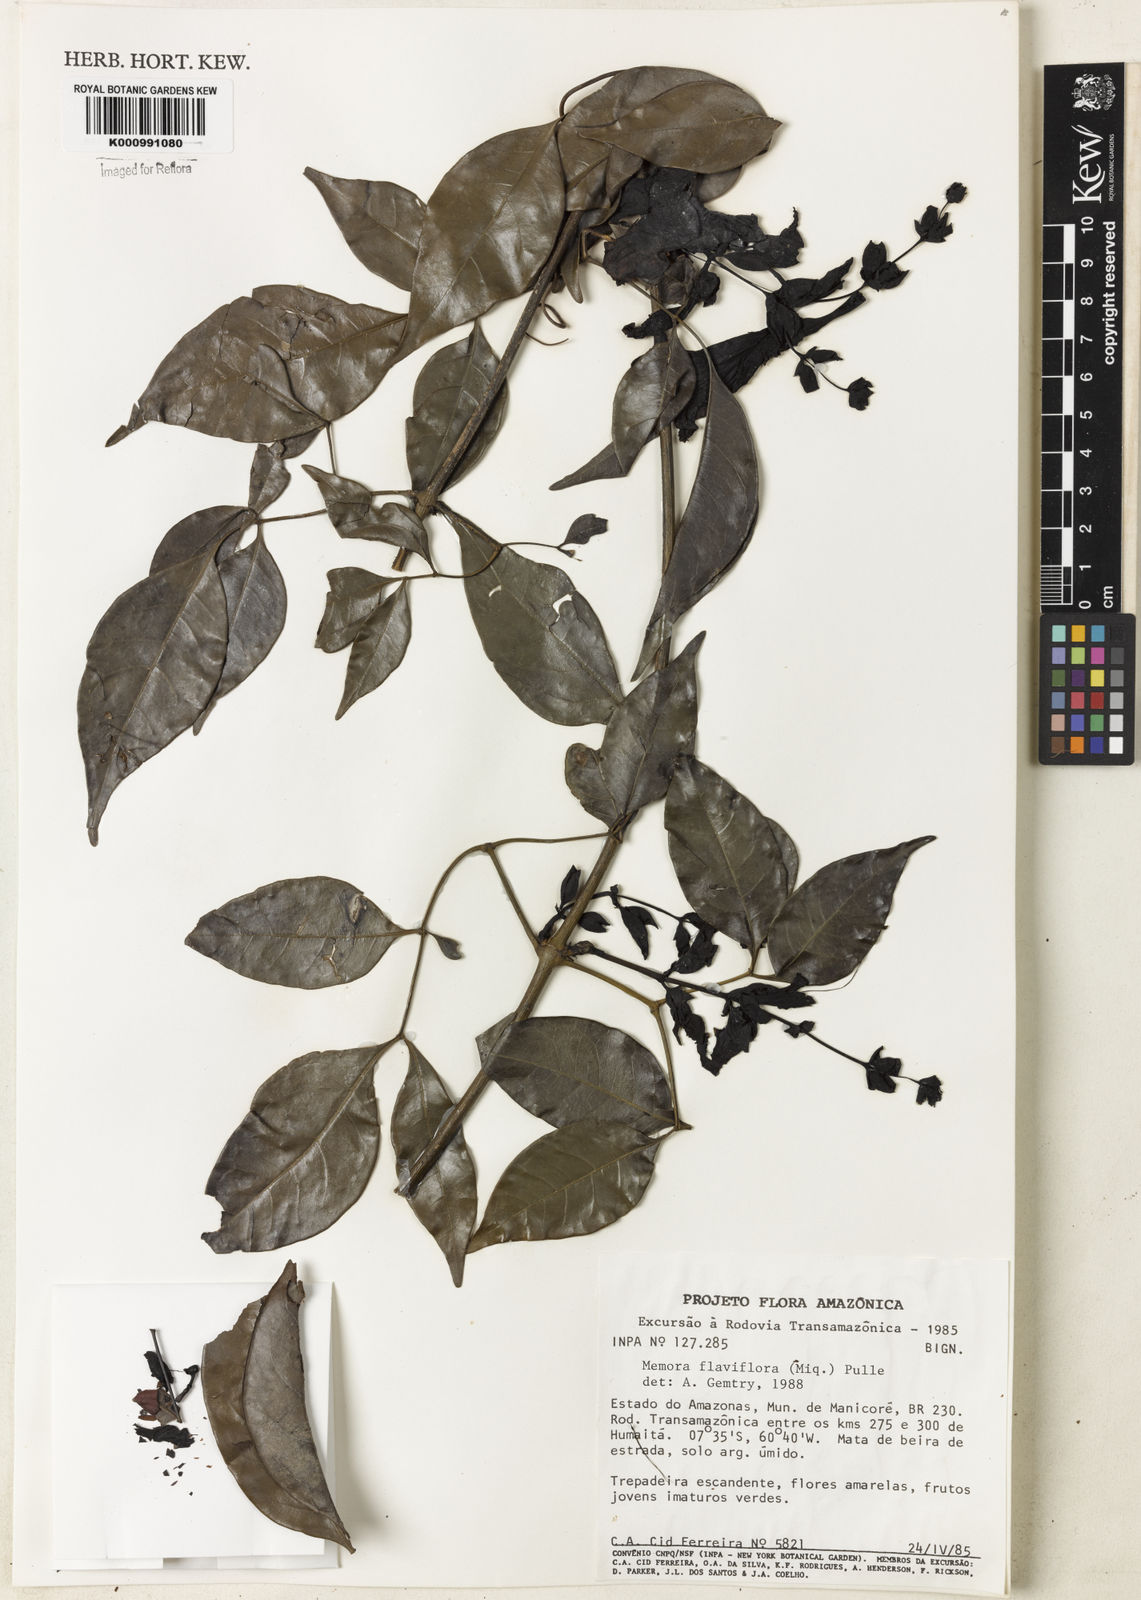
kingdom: Plantae
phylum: Tracheophyta
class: Magnoliopsida
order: Lamiales
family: Bignoniaceae
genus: Adenocalymma
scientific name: Adenocalymma flaviflorum
